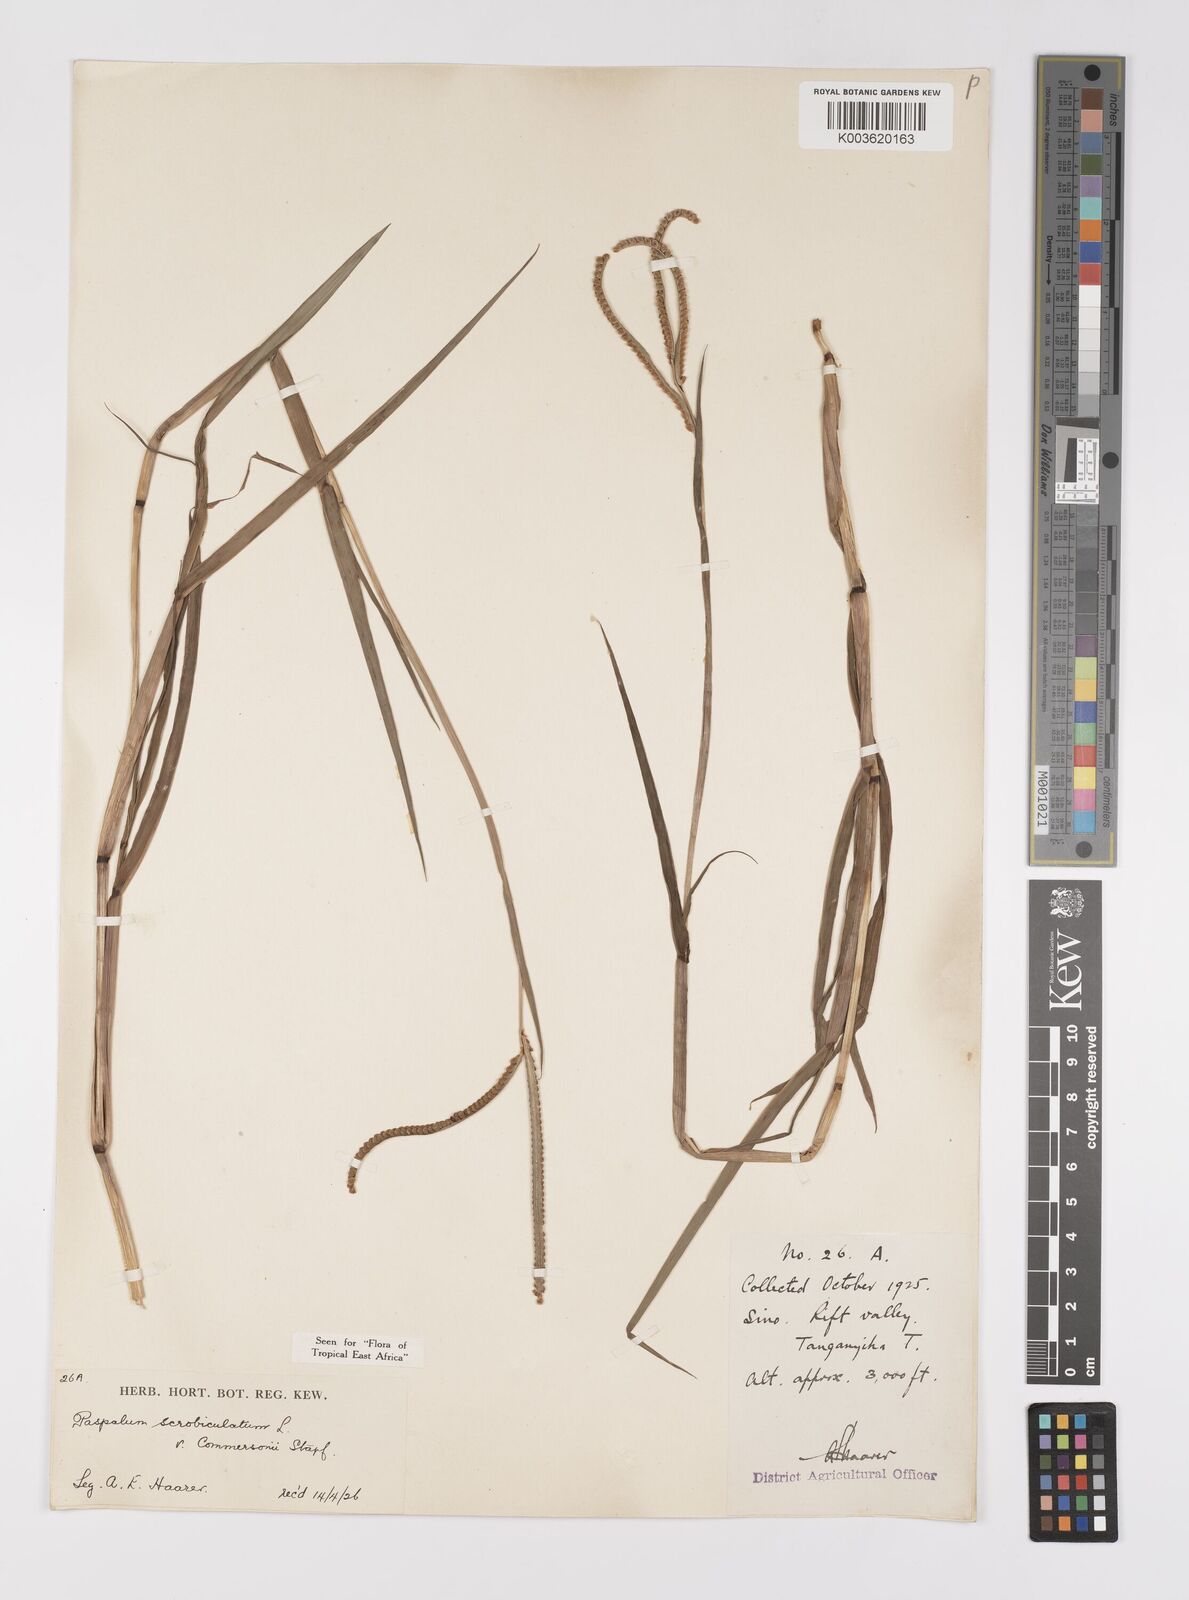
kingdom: Plantae
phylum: Tracheophyta
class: Liliopsida
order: Poales
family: Poaceae
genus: Paspalum
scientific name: Paspalum scrobiculatum
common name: Kodo millet
